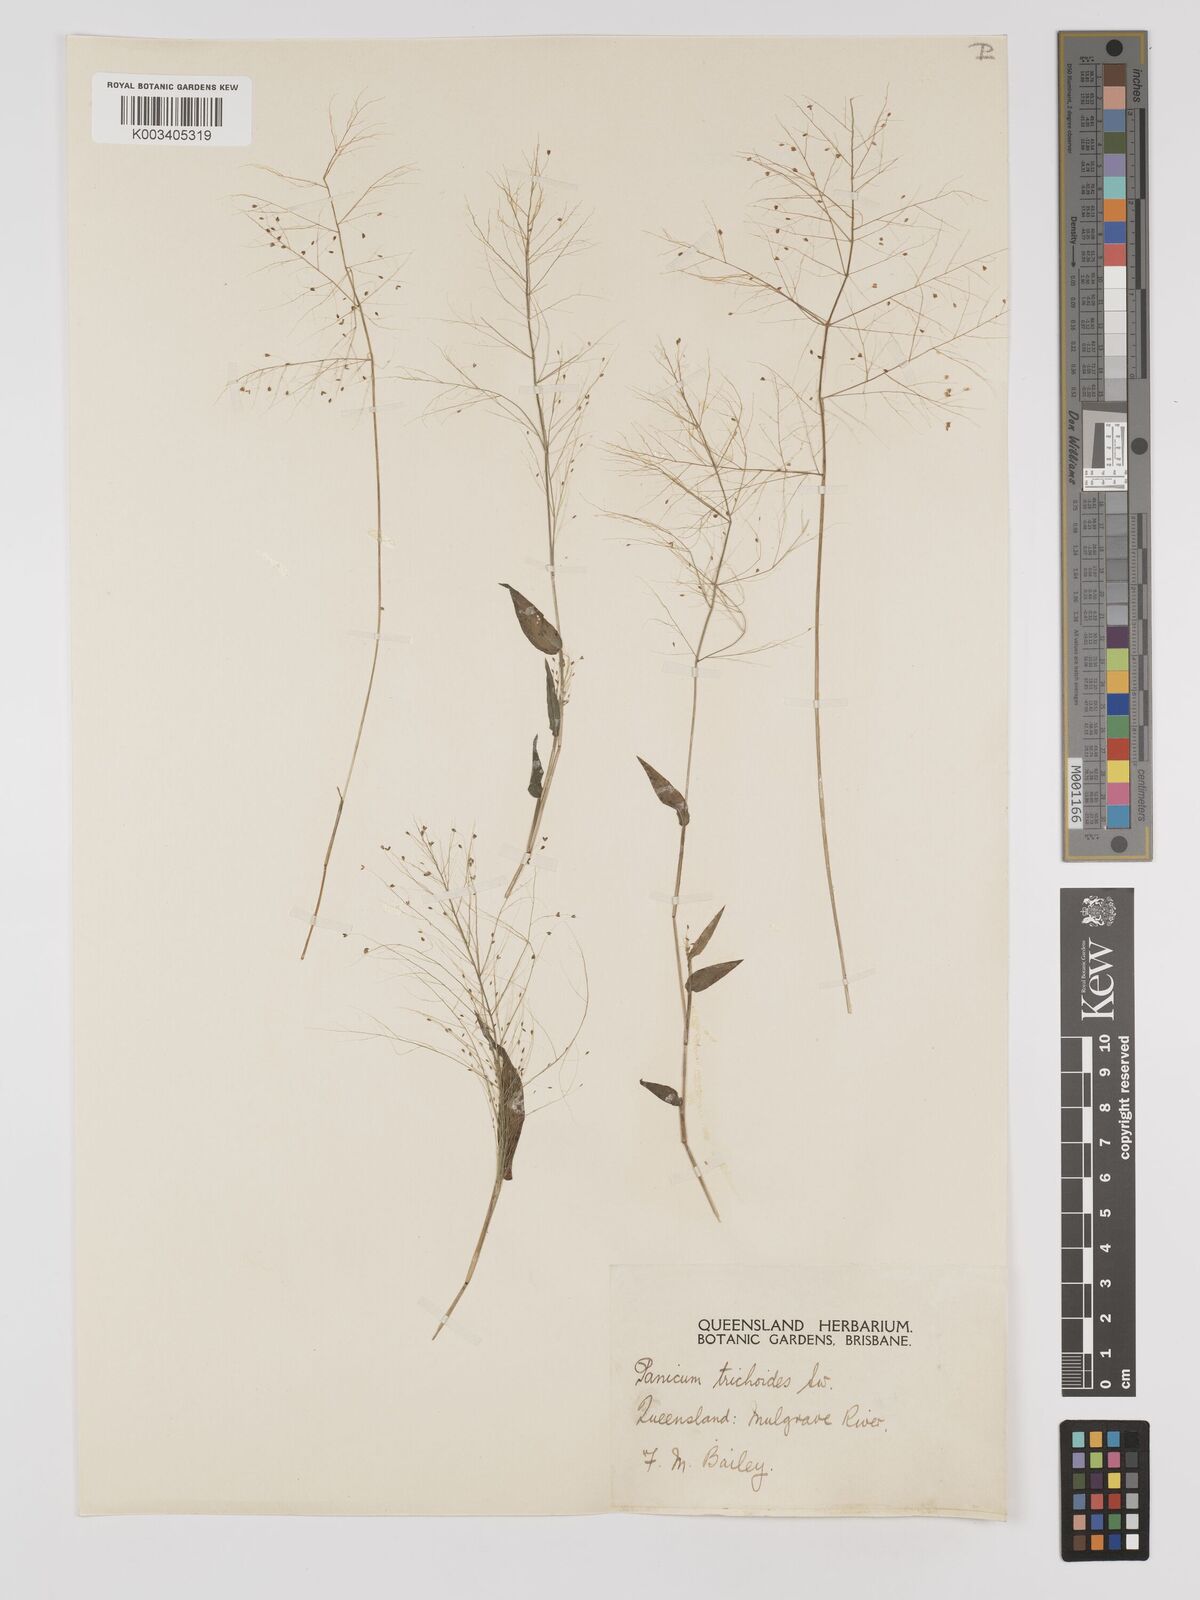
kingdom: Plantae
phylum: Tracheophyta
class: Liliopsida
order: Poales
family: Poaceae
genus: Panicum
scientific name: Panicum trichoides
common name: Tickle grass
